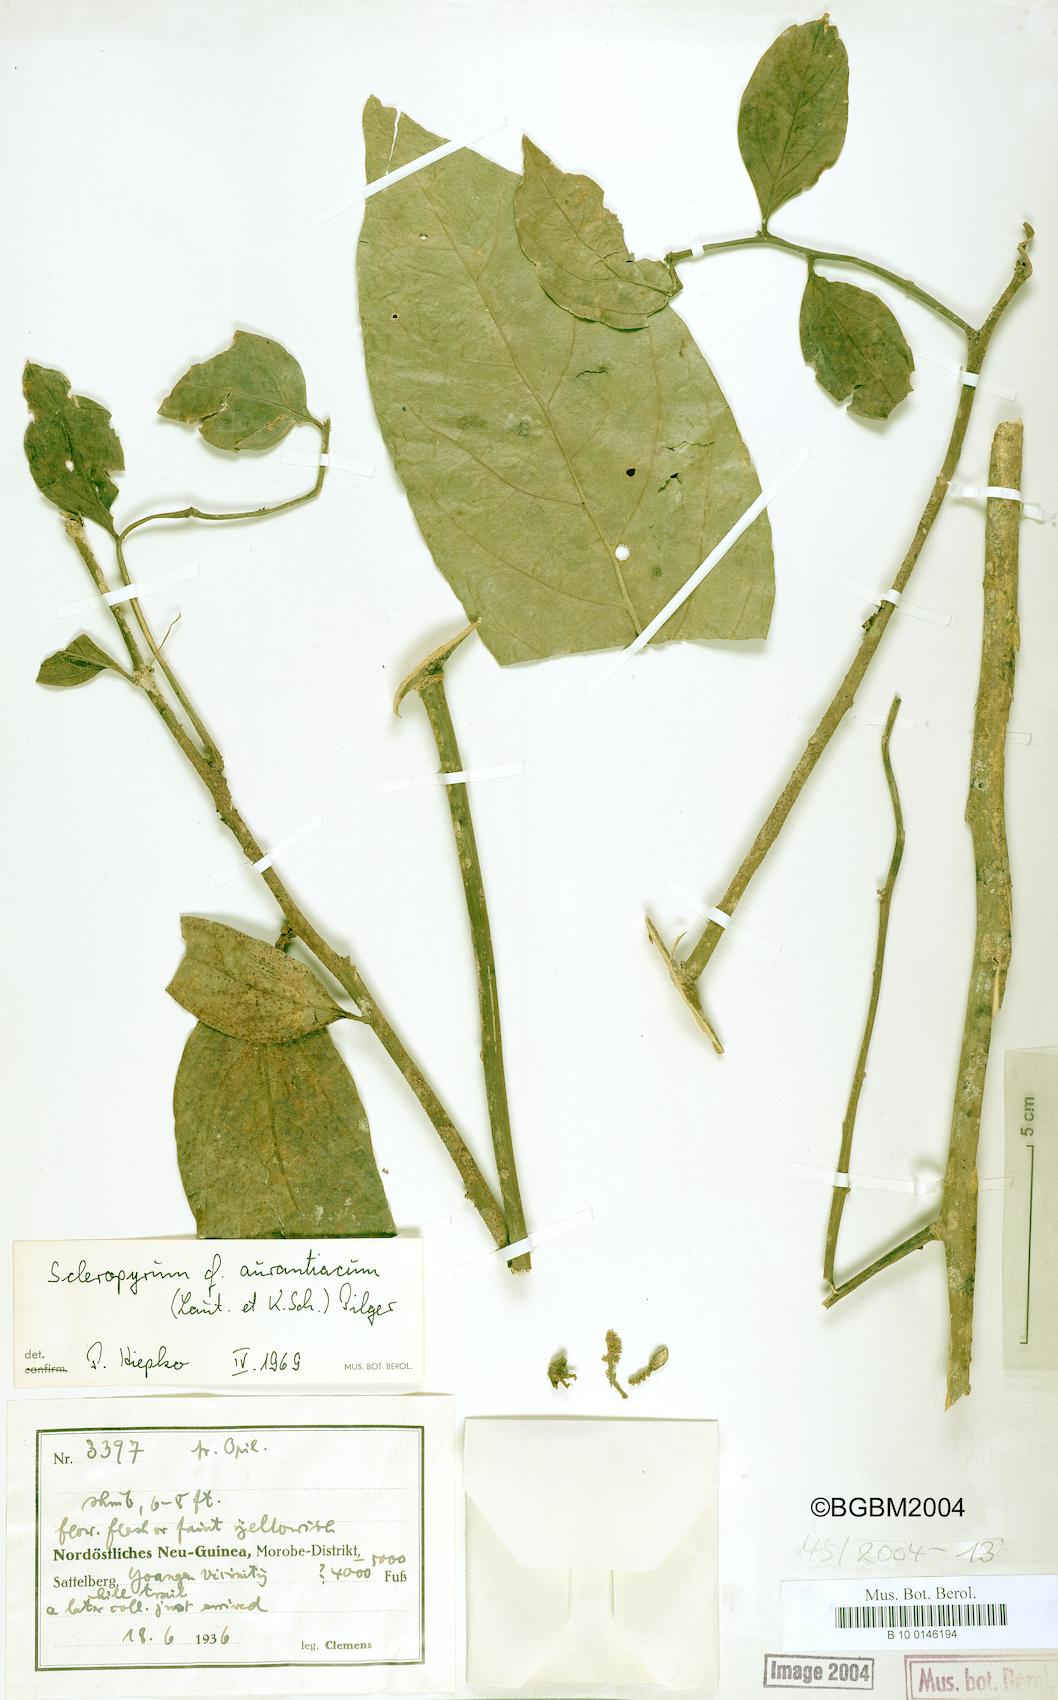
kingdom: Plantae
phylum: Tracheophyta
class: Magnoliopsida
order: Santalales
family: Cervantesiaceae
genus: Scleropyrum
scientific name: Scleropyrum aurantiacum
